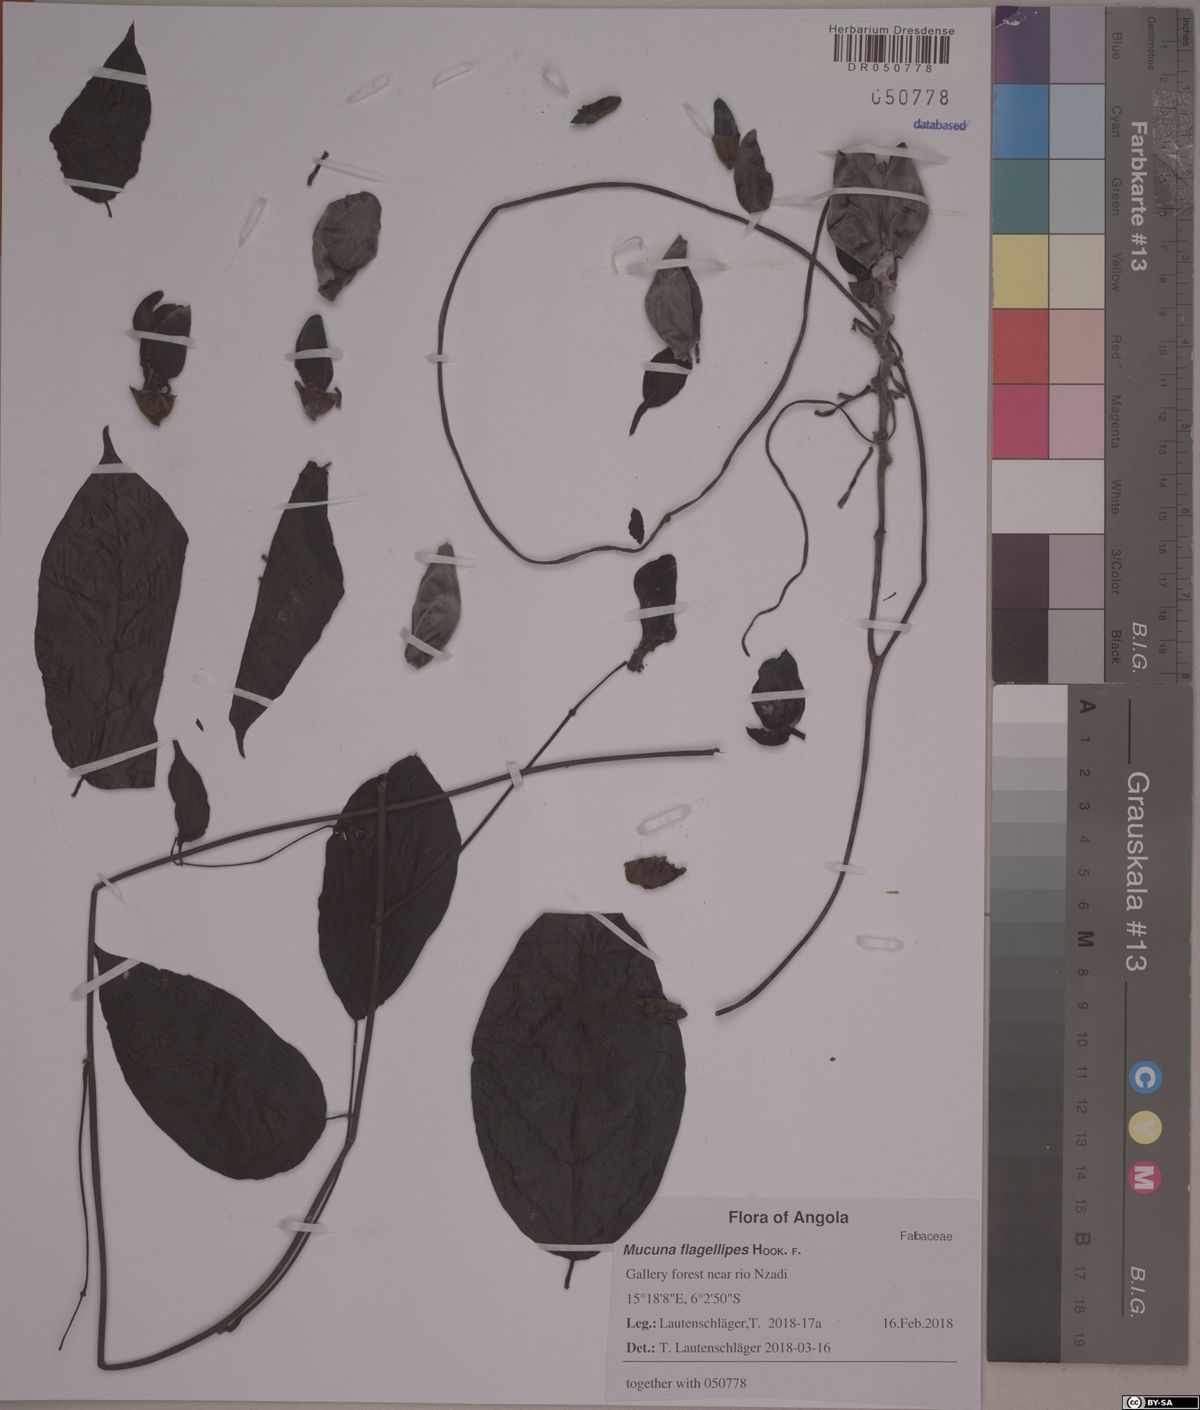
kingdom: Plantae
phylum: Tracheophyta
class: Magnoliopsida
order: Fabales
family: Fabaceae
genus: Mucuna
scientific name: Mucuna flagellipes
